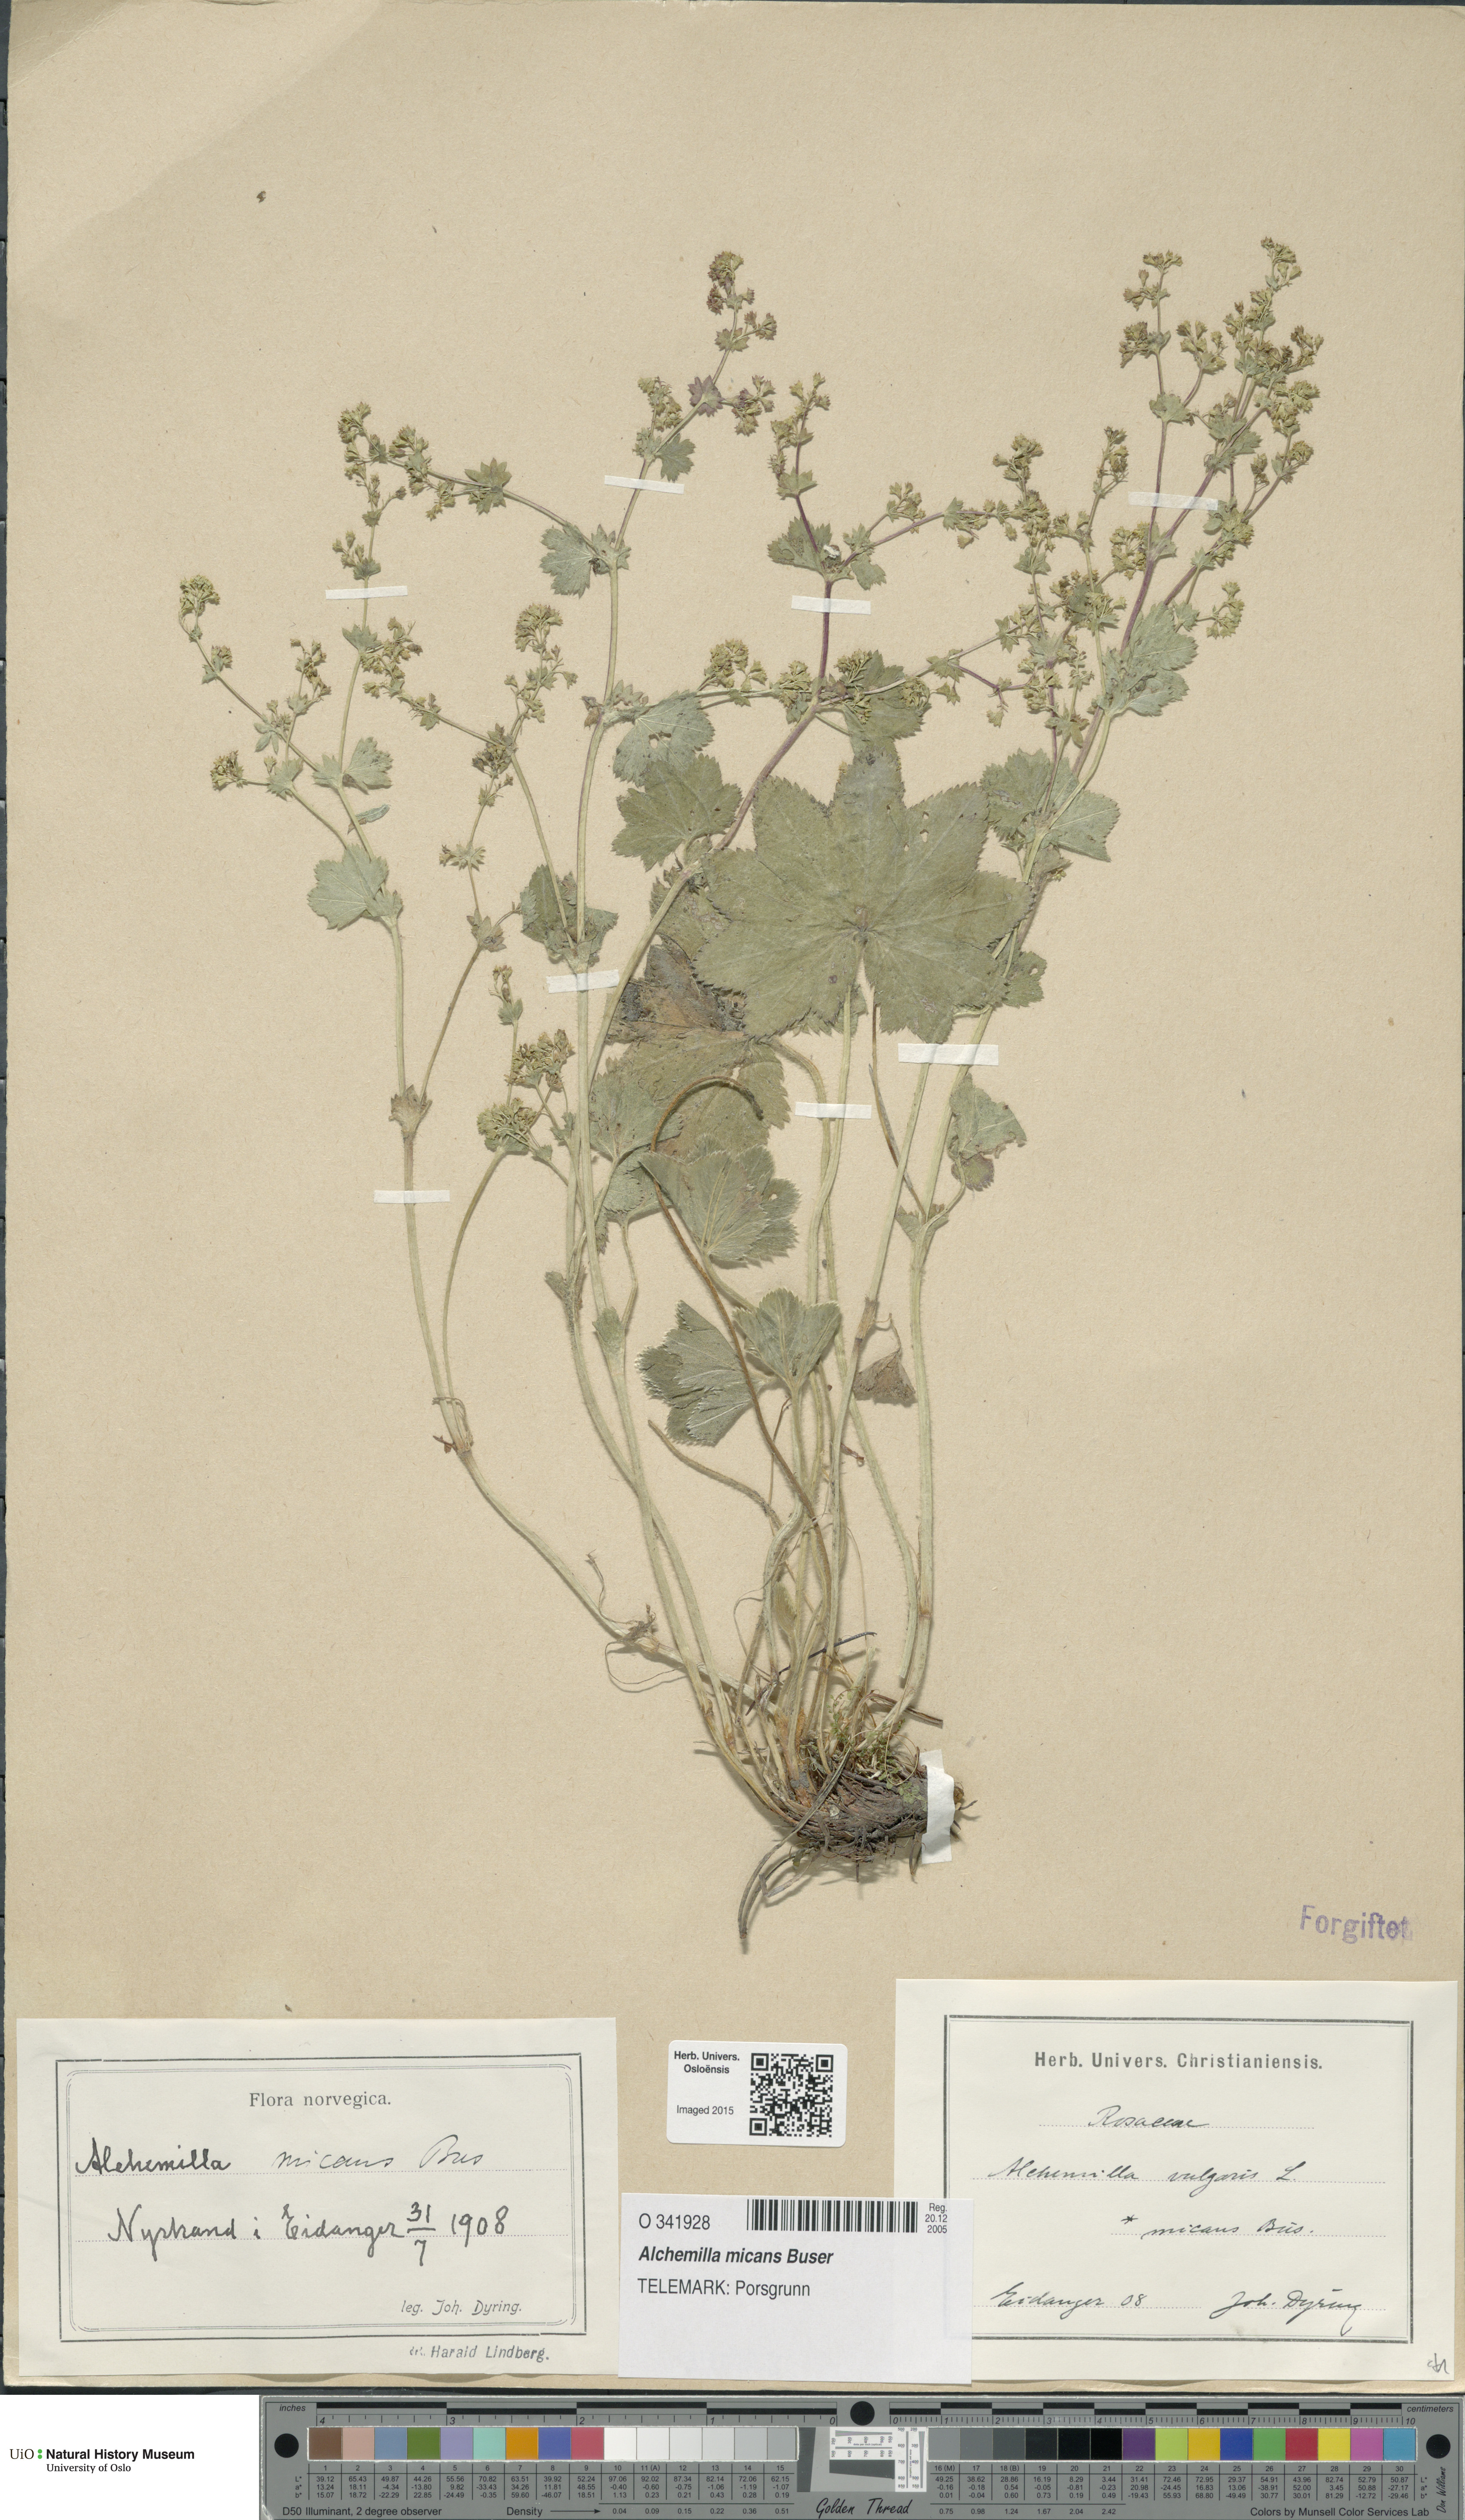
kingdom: Plantae
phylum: Tracheophyta
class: Magnoliopsida
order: Rosales
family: Rosaceae
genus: Alchemilla
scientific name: Alchemilla micans
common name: Gleaming lady's mantle
